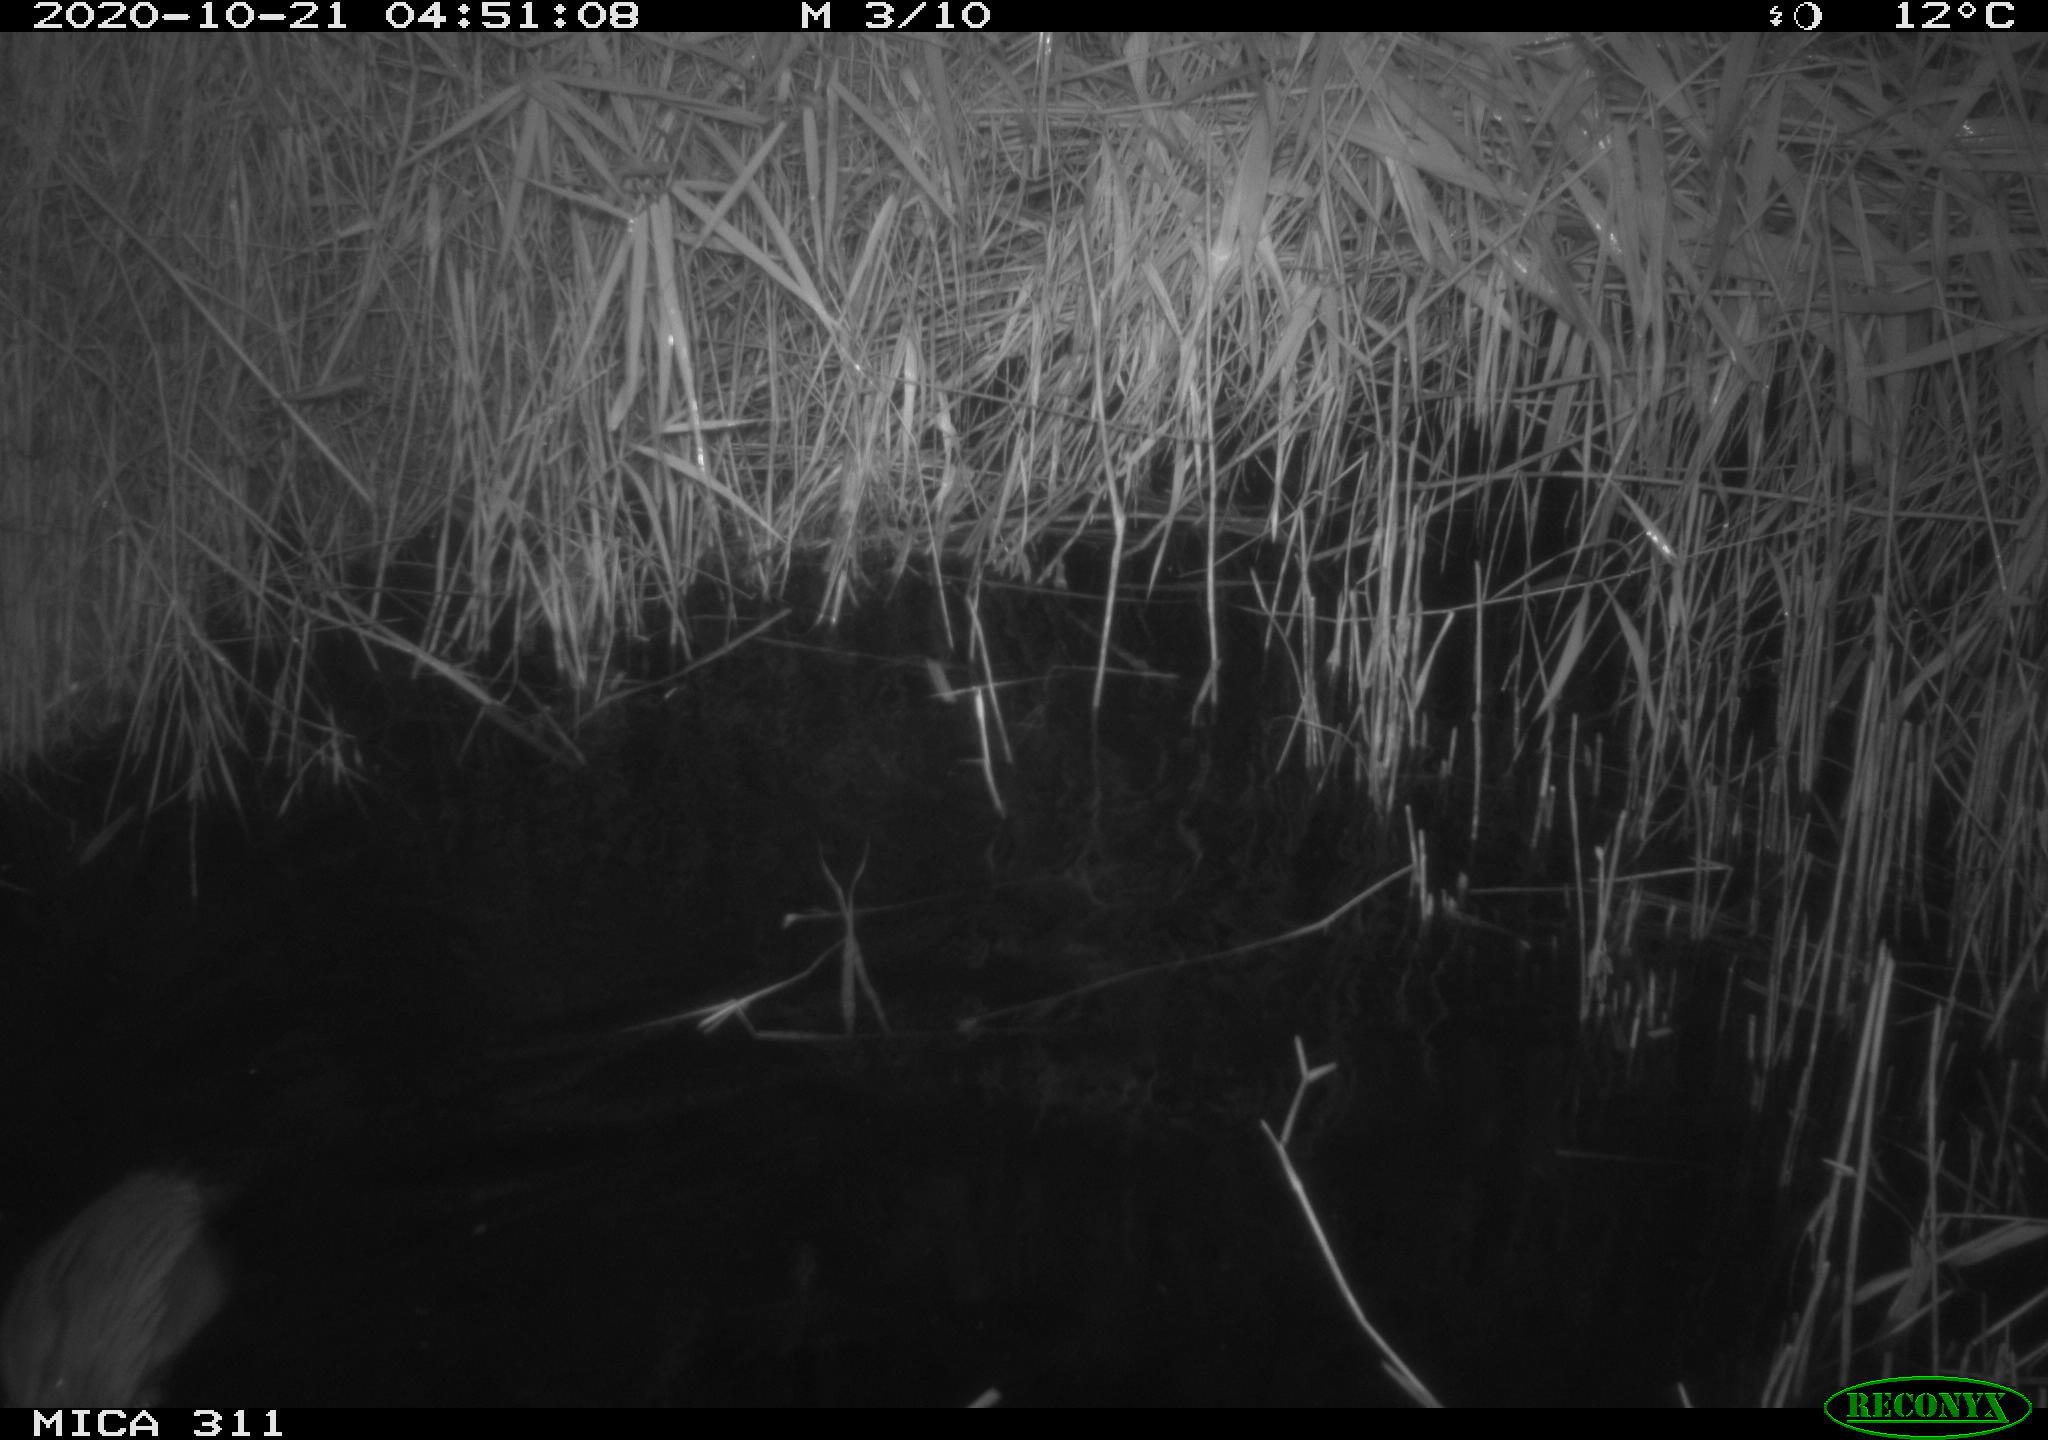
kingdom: Animalia
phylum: Chordata
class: Mammalia
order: Rodentia
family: Cricetidae
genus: Ondatra
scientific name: Ondatra zibethicus
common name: Muskrat
